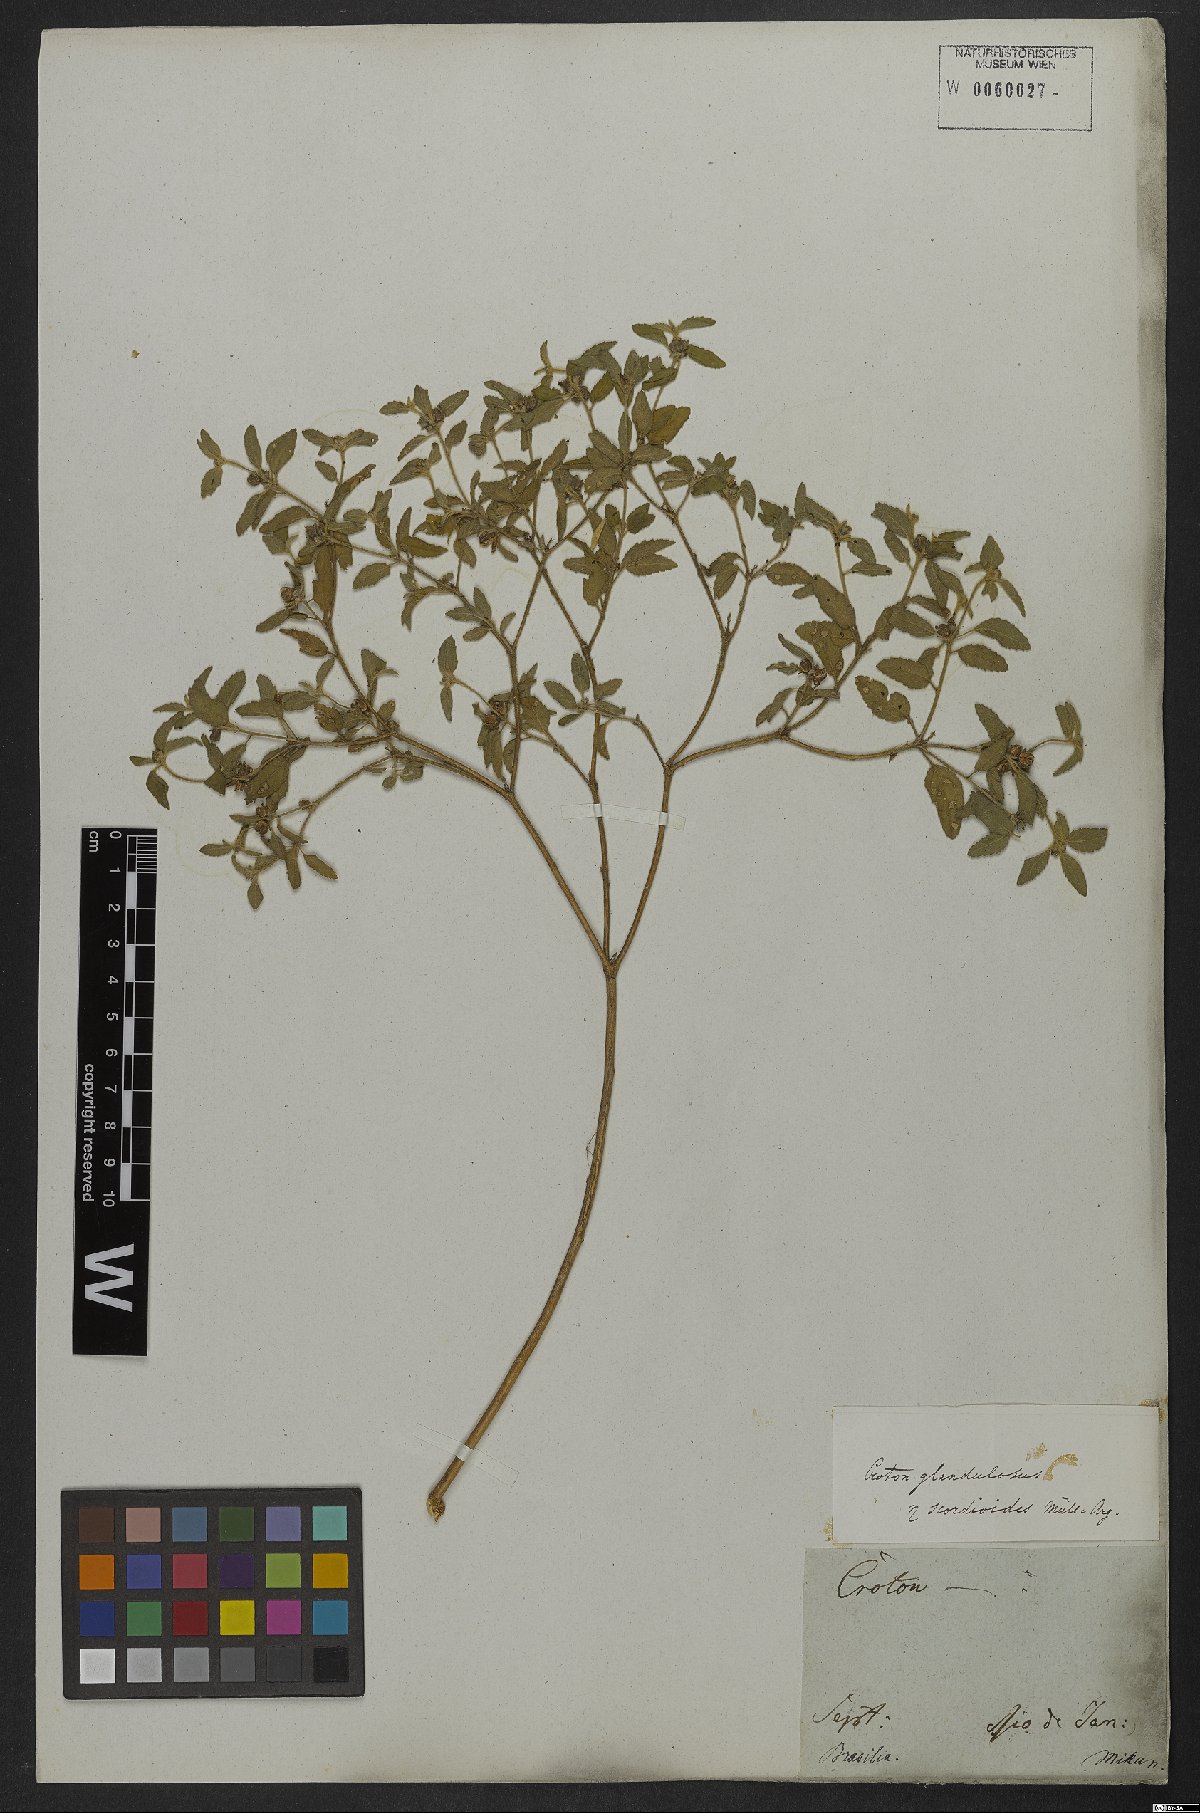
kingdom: Plantae
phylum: Tracheophyta
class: Magnoliopsida
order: Malpighiales
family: Euphorbiaceae
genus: Croton
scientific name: Croton glandulosus
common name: Tropic croton
